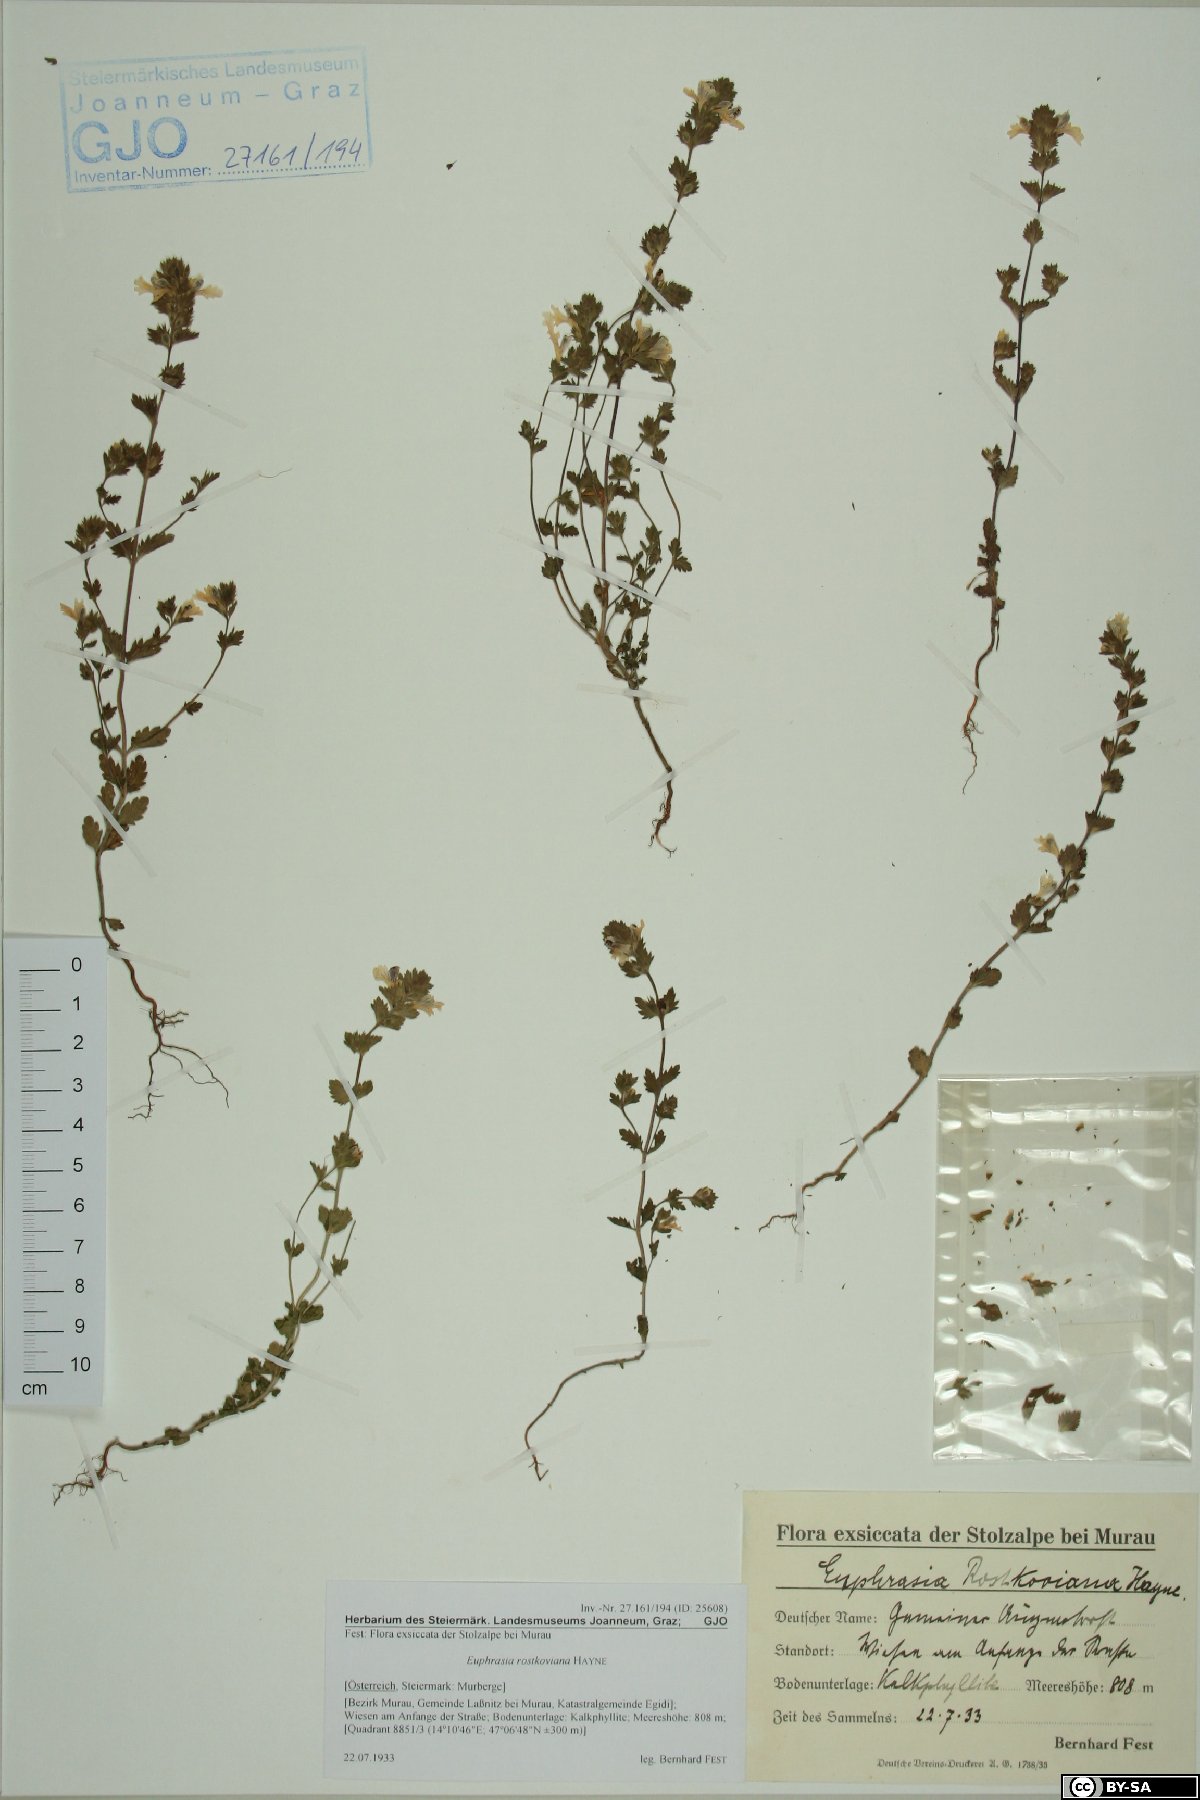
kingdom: Plantae
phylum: Tracheophyta
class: Magnoliopsida
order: Lamiales
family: Orobanchaceae
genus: Euphrasia
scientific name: Euphrasia officinalis
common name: Eyebright
